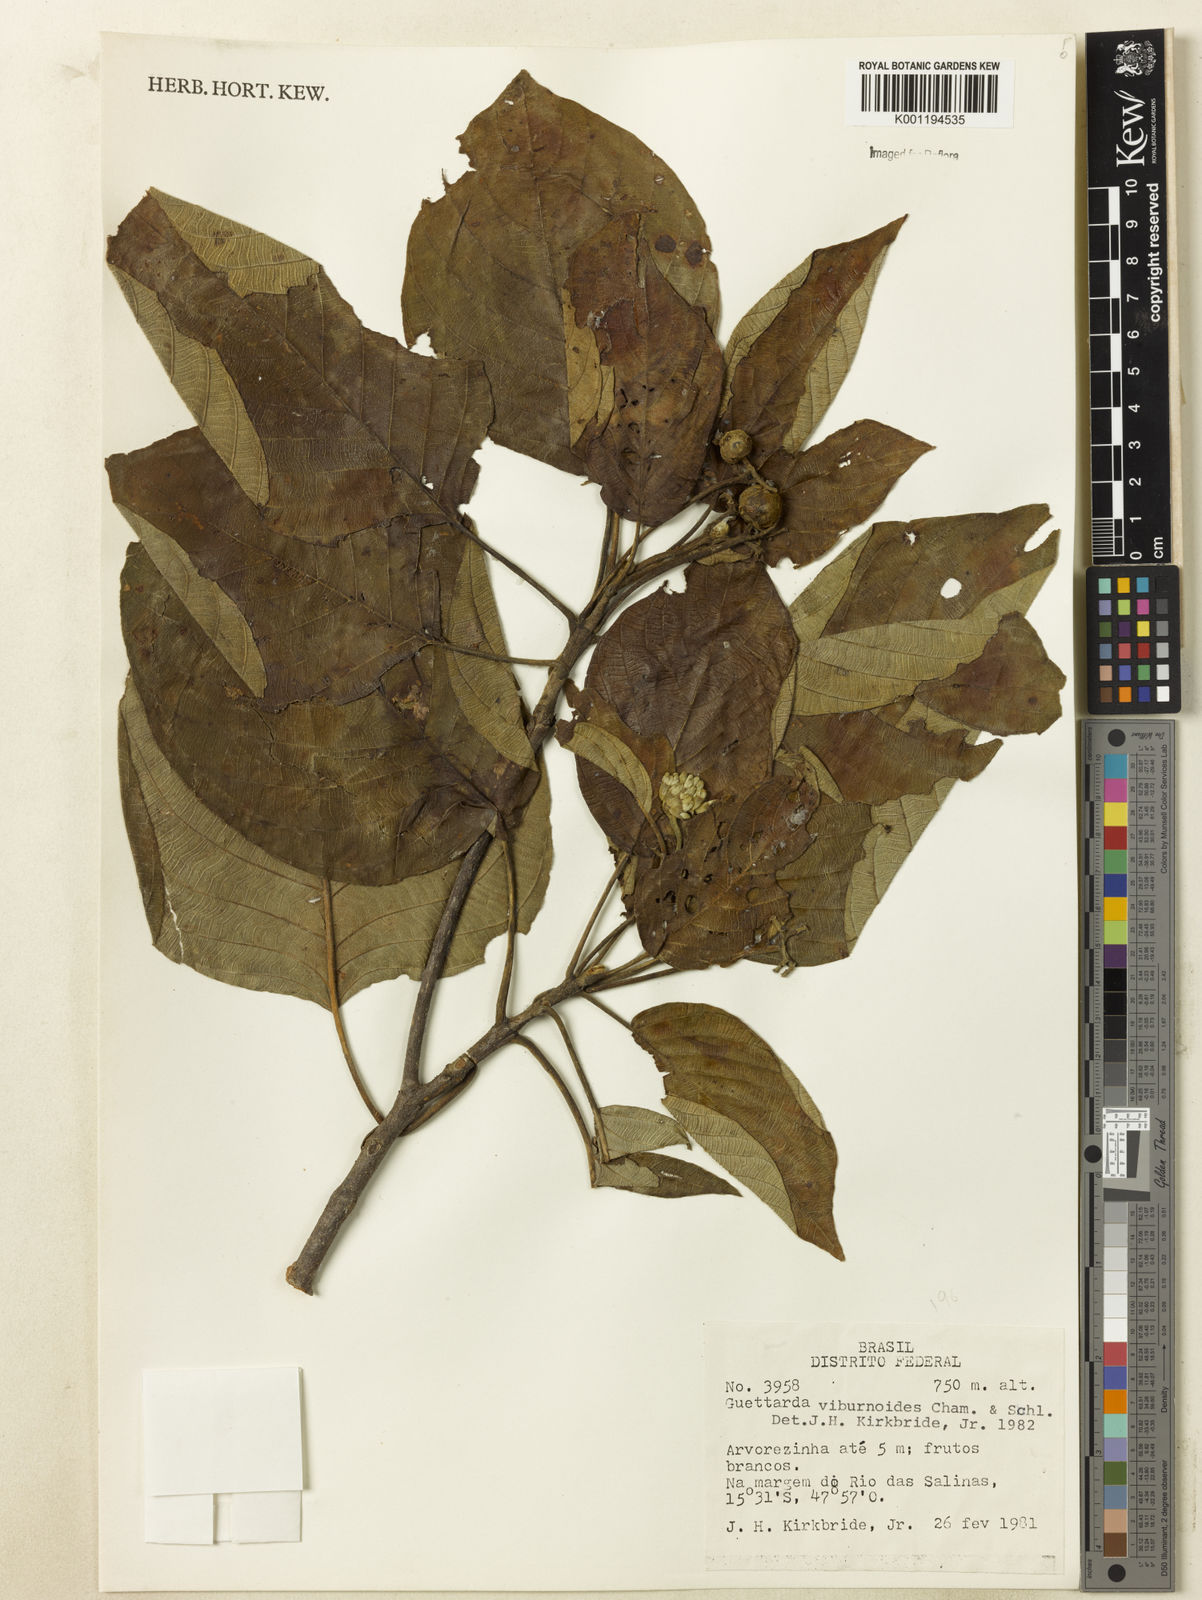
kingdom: Plantae
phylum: Tracheophyta
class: Magnoliopsida
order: Gentianales
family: Rubiaceae
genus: Guettarda
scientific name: Guettarda viburnoides
